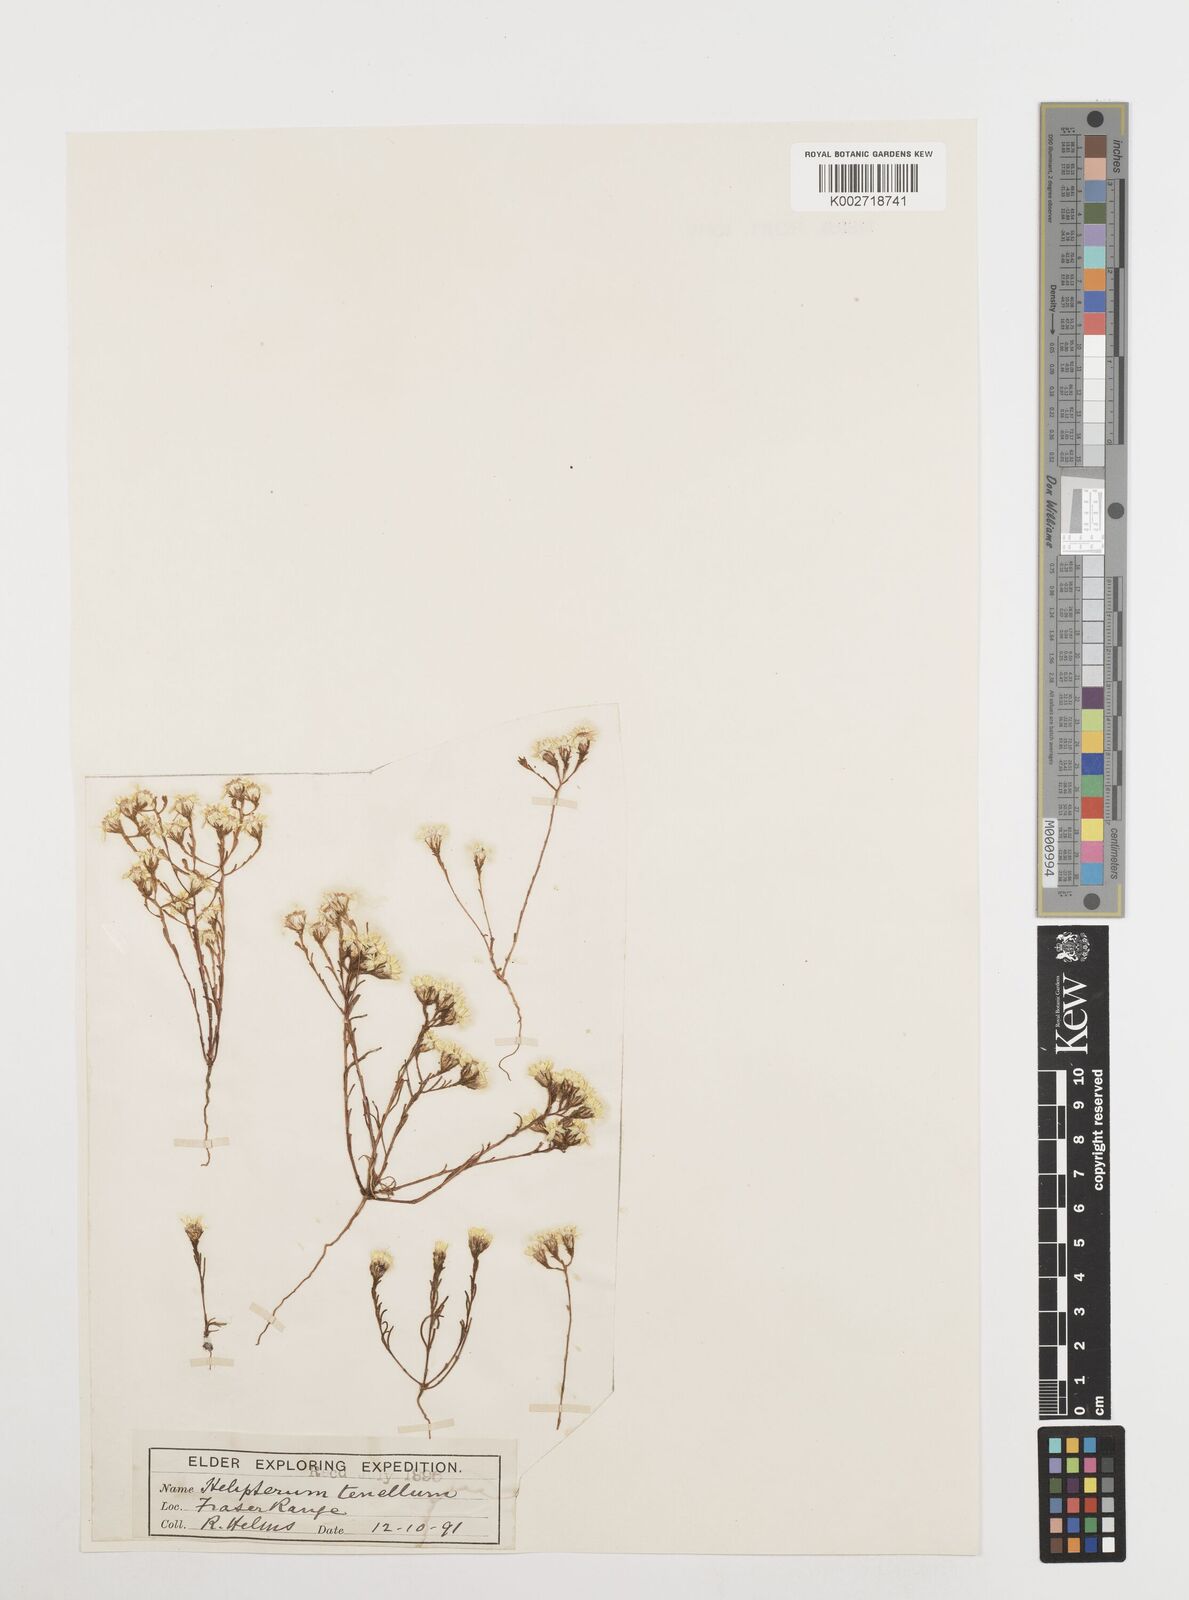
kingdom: Plantae
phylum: Tracheophyta
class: Magnoliopsida
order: Asterales
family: Asteraceae
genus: Erymophyllum
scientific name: Erymophyllum tenellum
